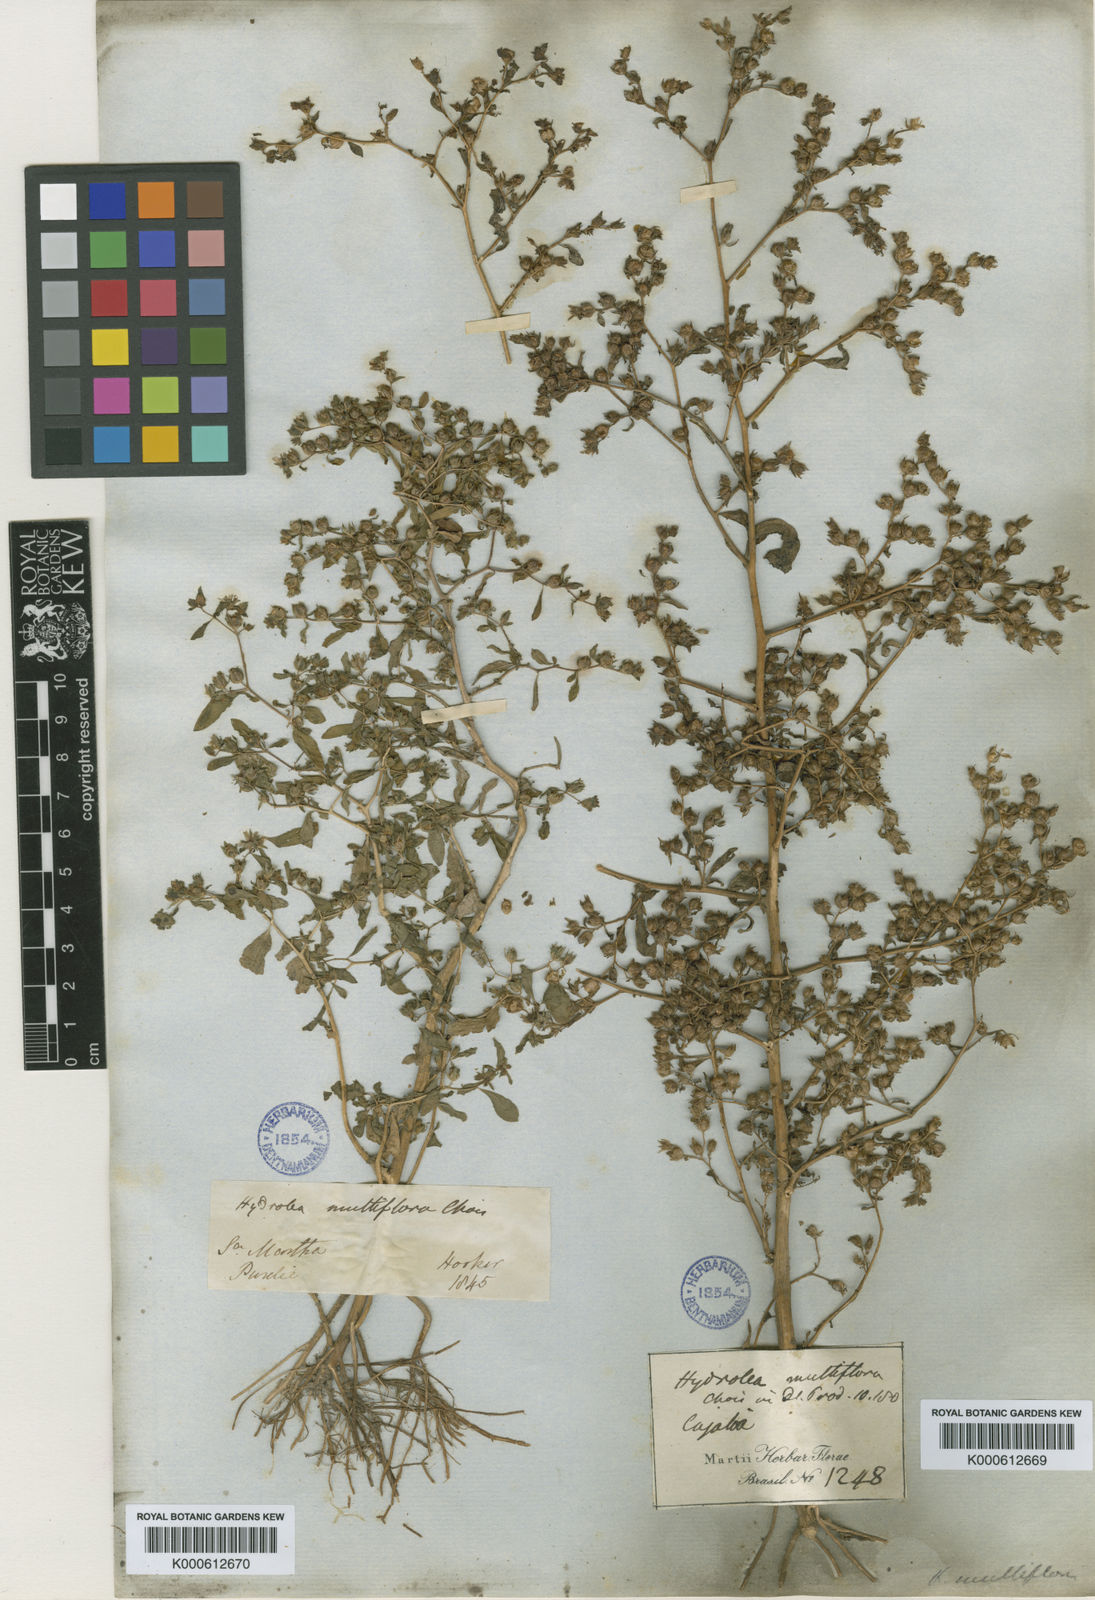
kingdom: Plantae
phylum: Tracheophyta
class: Magnoliopsida
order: Solanales
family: Hydroleaceae
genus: Hydrolea
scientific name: Hydrolea elatior
